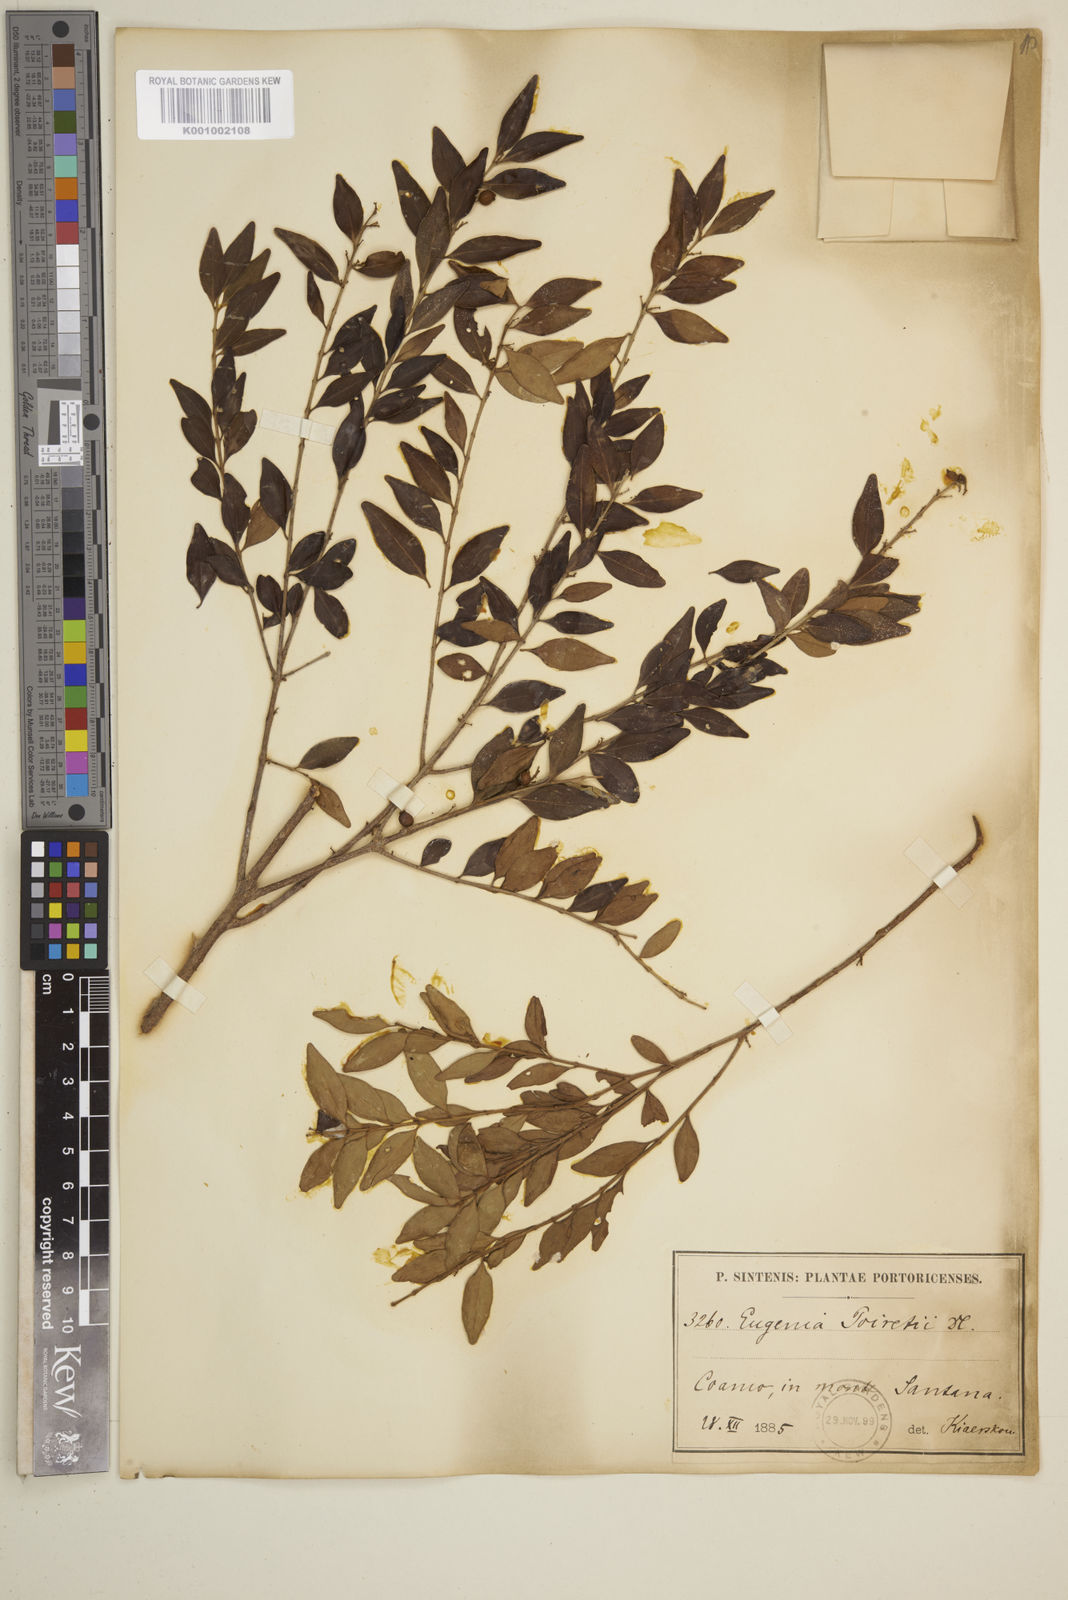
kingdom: Plantae
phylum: Tracheophyta
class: Magnoliopsida
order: Myrtales
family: Myrtaceae
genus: Eugenia
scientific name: Eugenia monticola
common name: Birds berry
